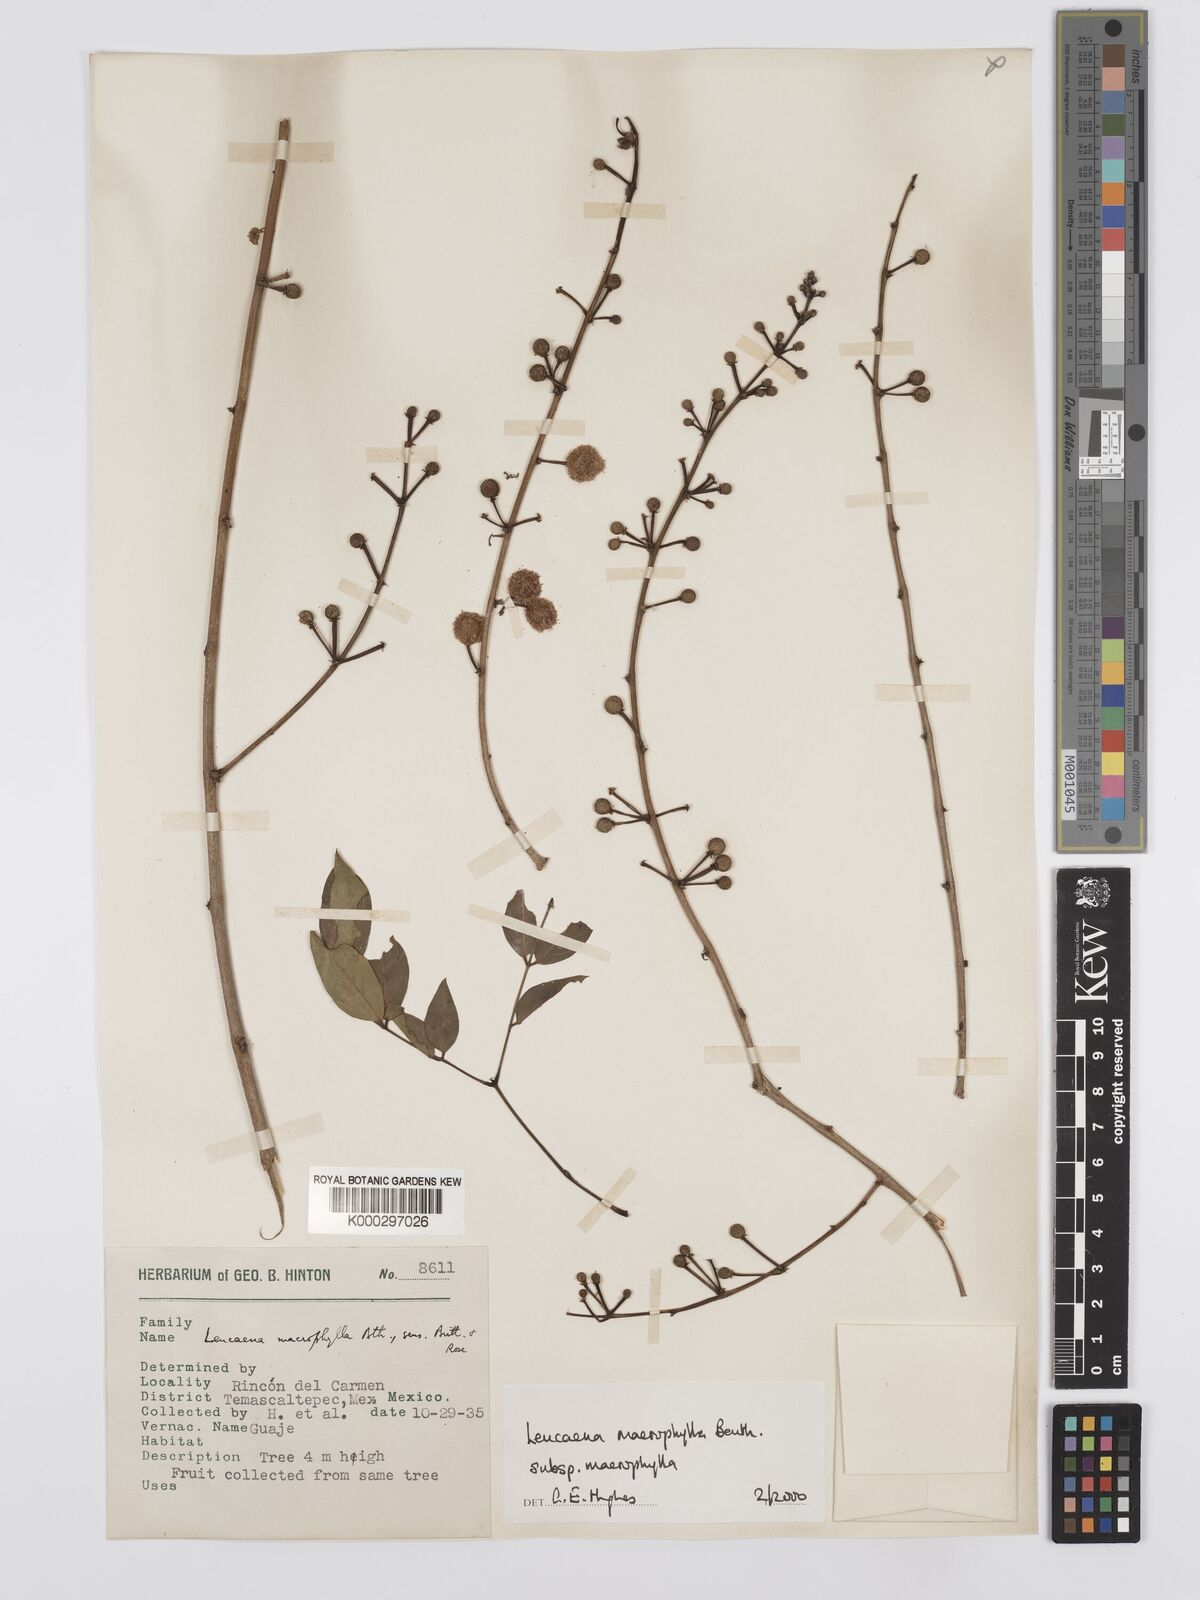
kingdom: Plantae
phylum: Tracheophyta
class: Magnoliopsida
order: Fabales
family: Fabaceae
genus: Leucaena
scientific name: Leucaena macrophylla
